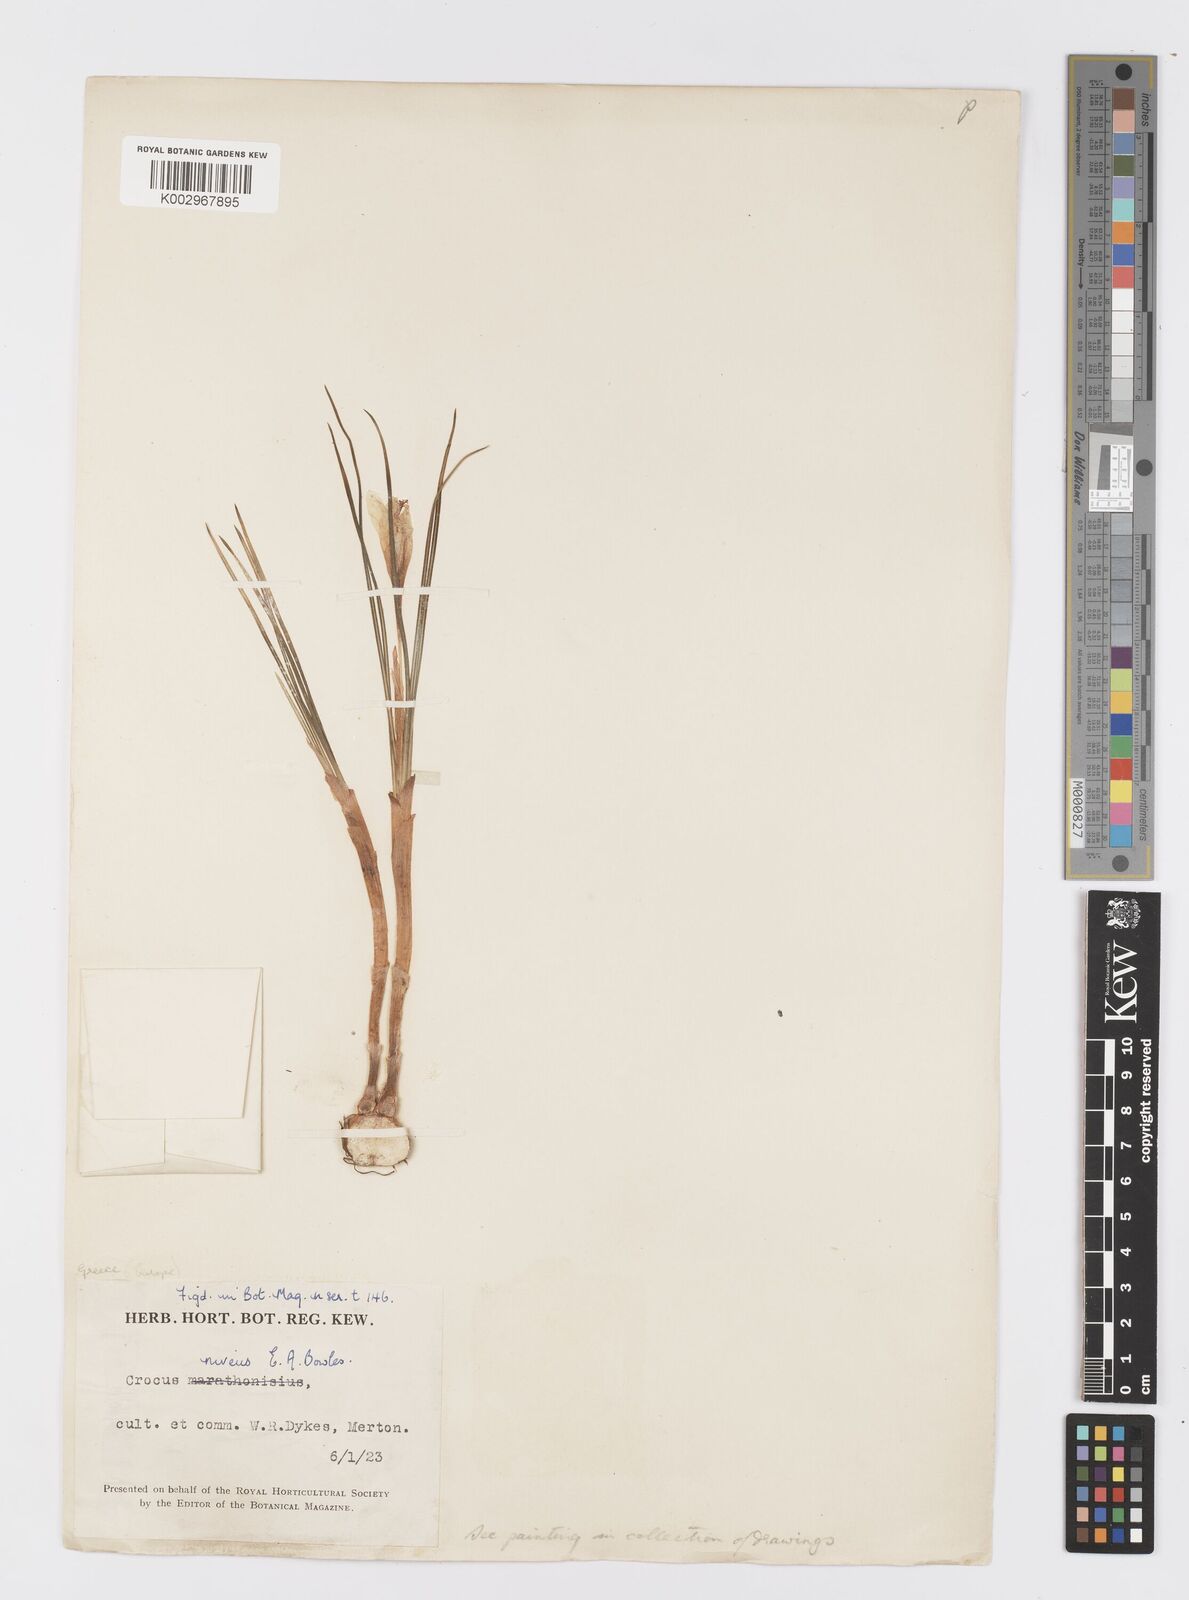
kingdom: Plantae
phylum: Tracheophyta
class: Liliopsida
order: Asparagales
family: Iridaceae
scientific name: Iridaceae
